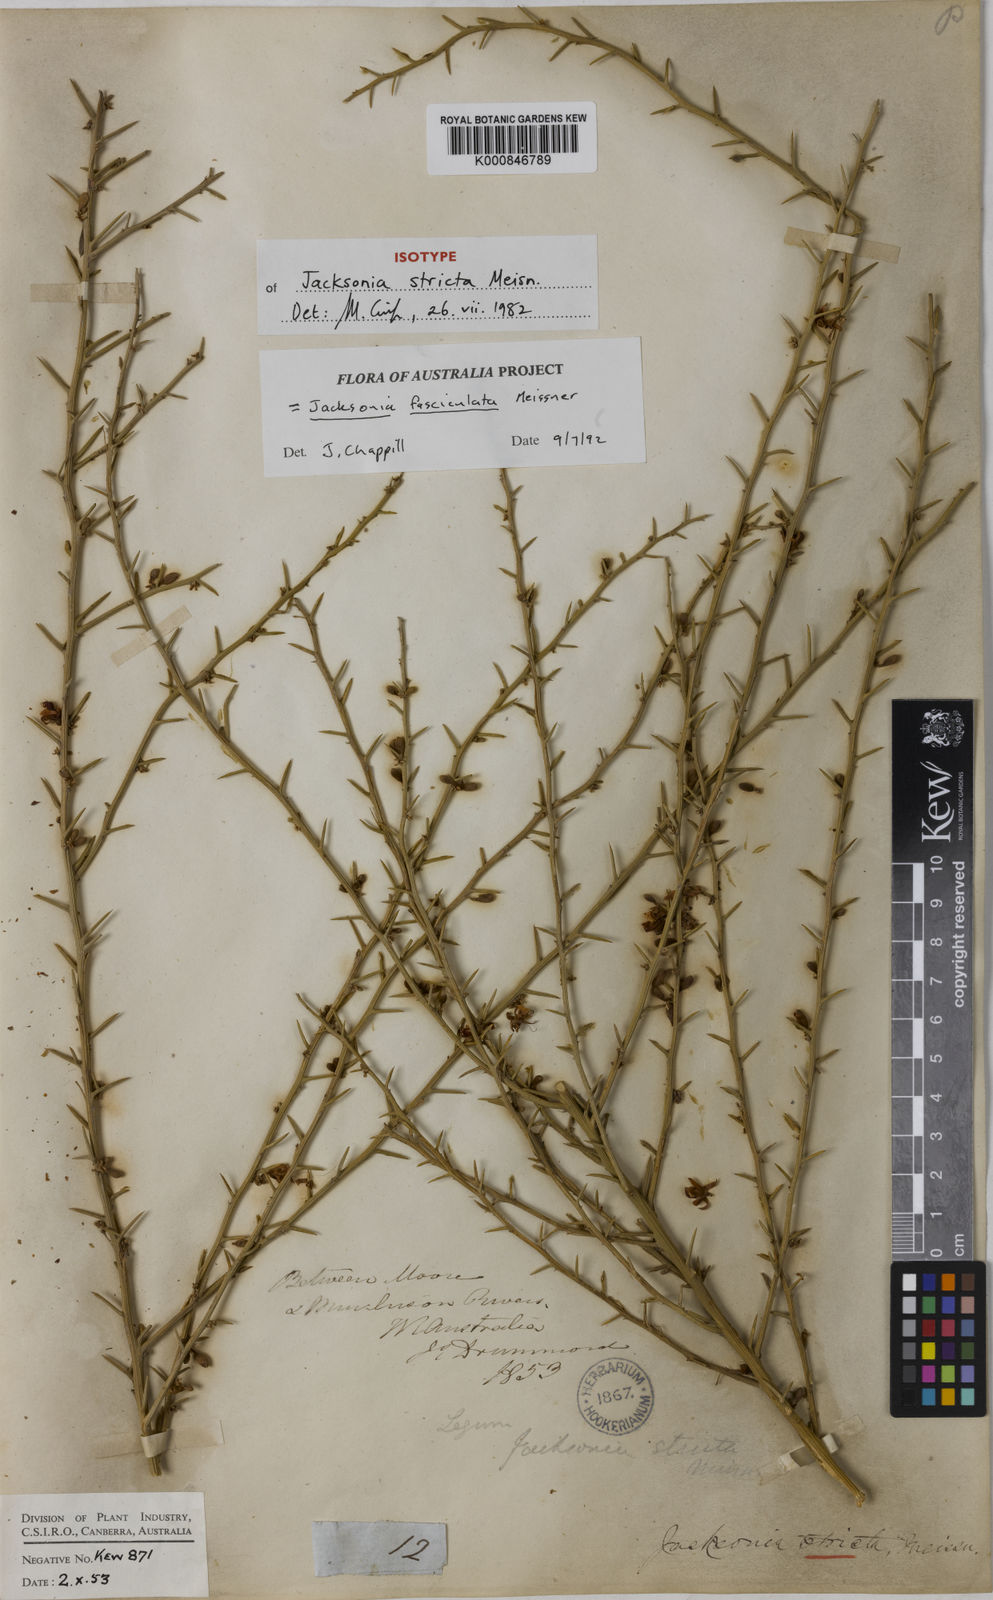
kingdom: Plantae
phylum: Tracheophyta
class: Magnoliopsida
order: Fabales
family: Fabaceae
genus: Jacksonia
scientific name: Jacksonia fasciculata
